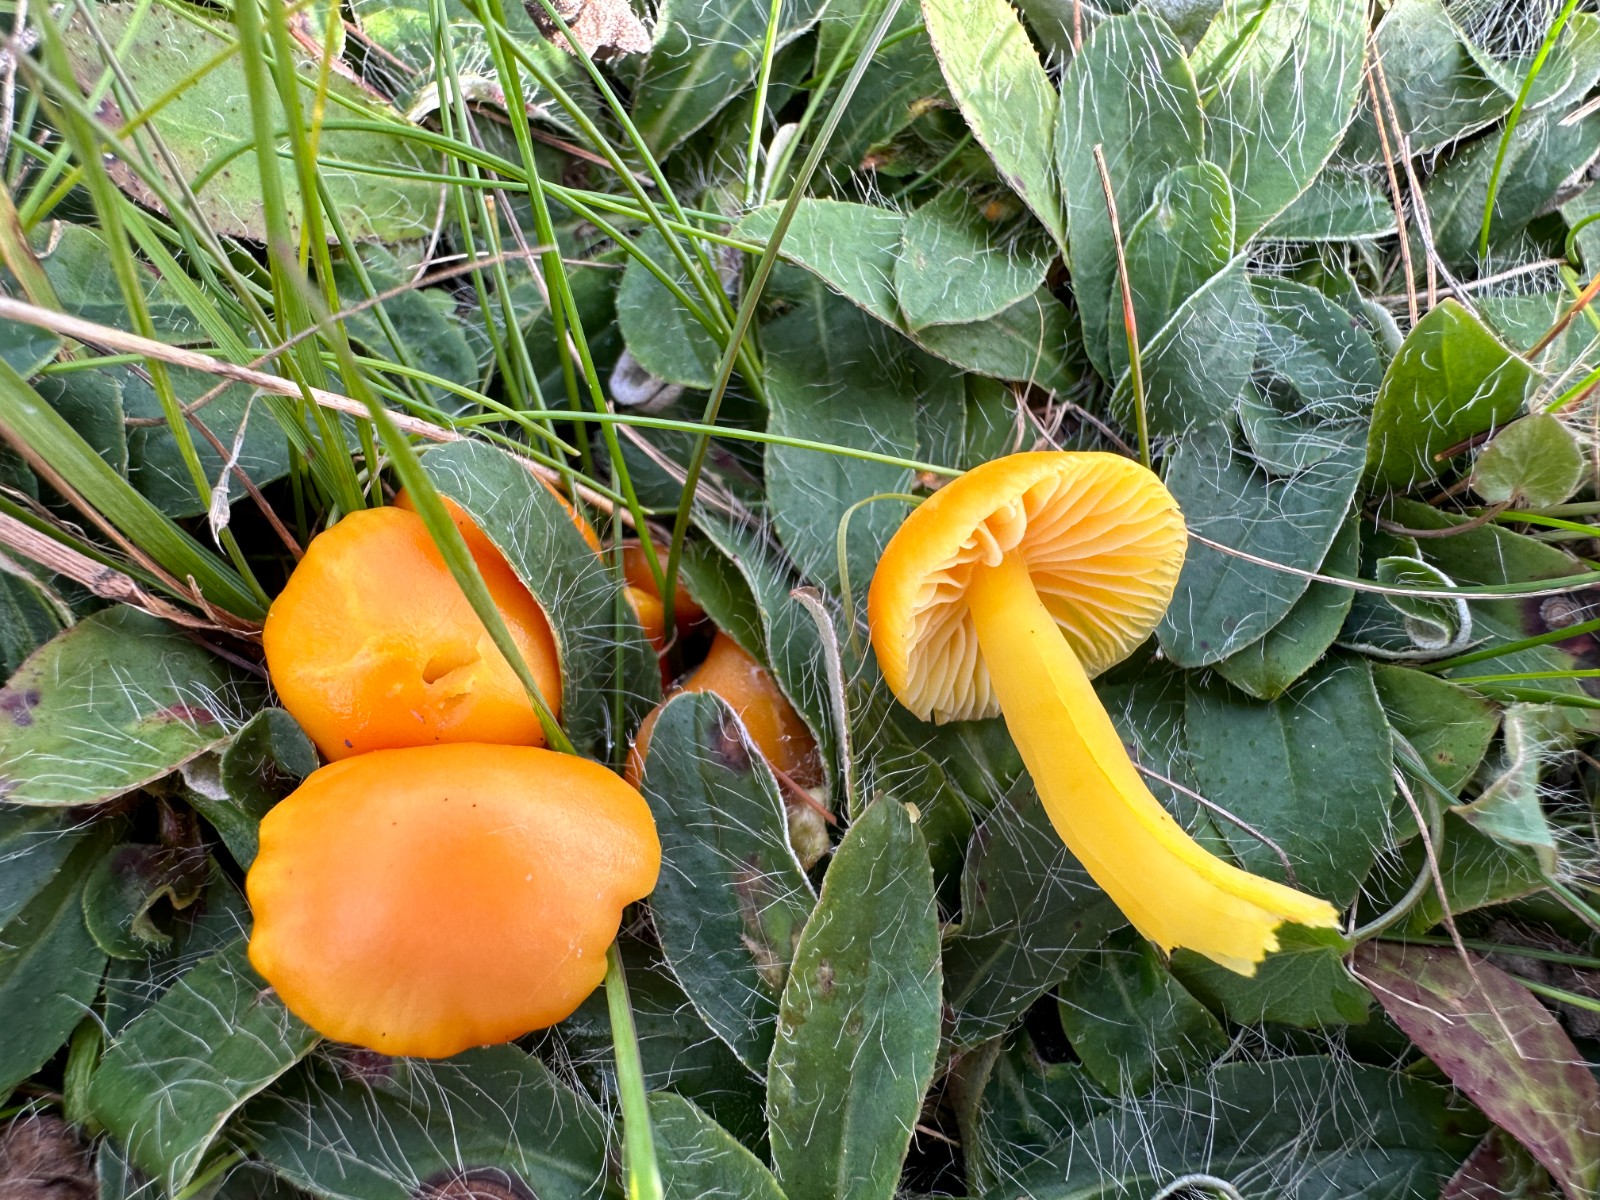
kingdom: Fungi
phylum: Basidiomycota
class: Agaricomycetes
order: Agaricales
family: Hygrophoraceae
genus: Hygrocybe
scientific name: Hygrocybe ceracea
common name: voksgul vokshat
